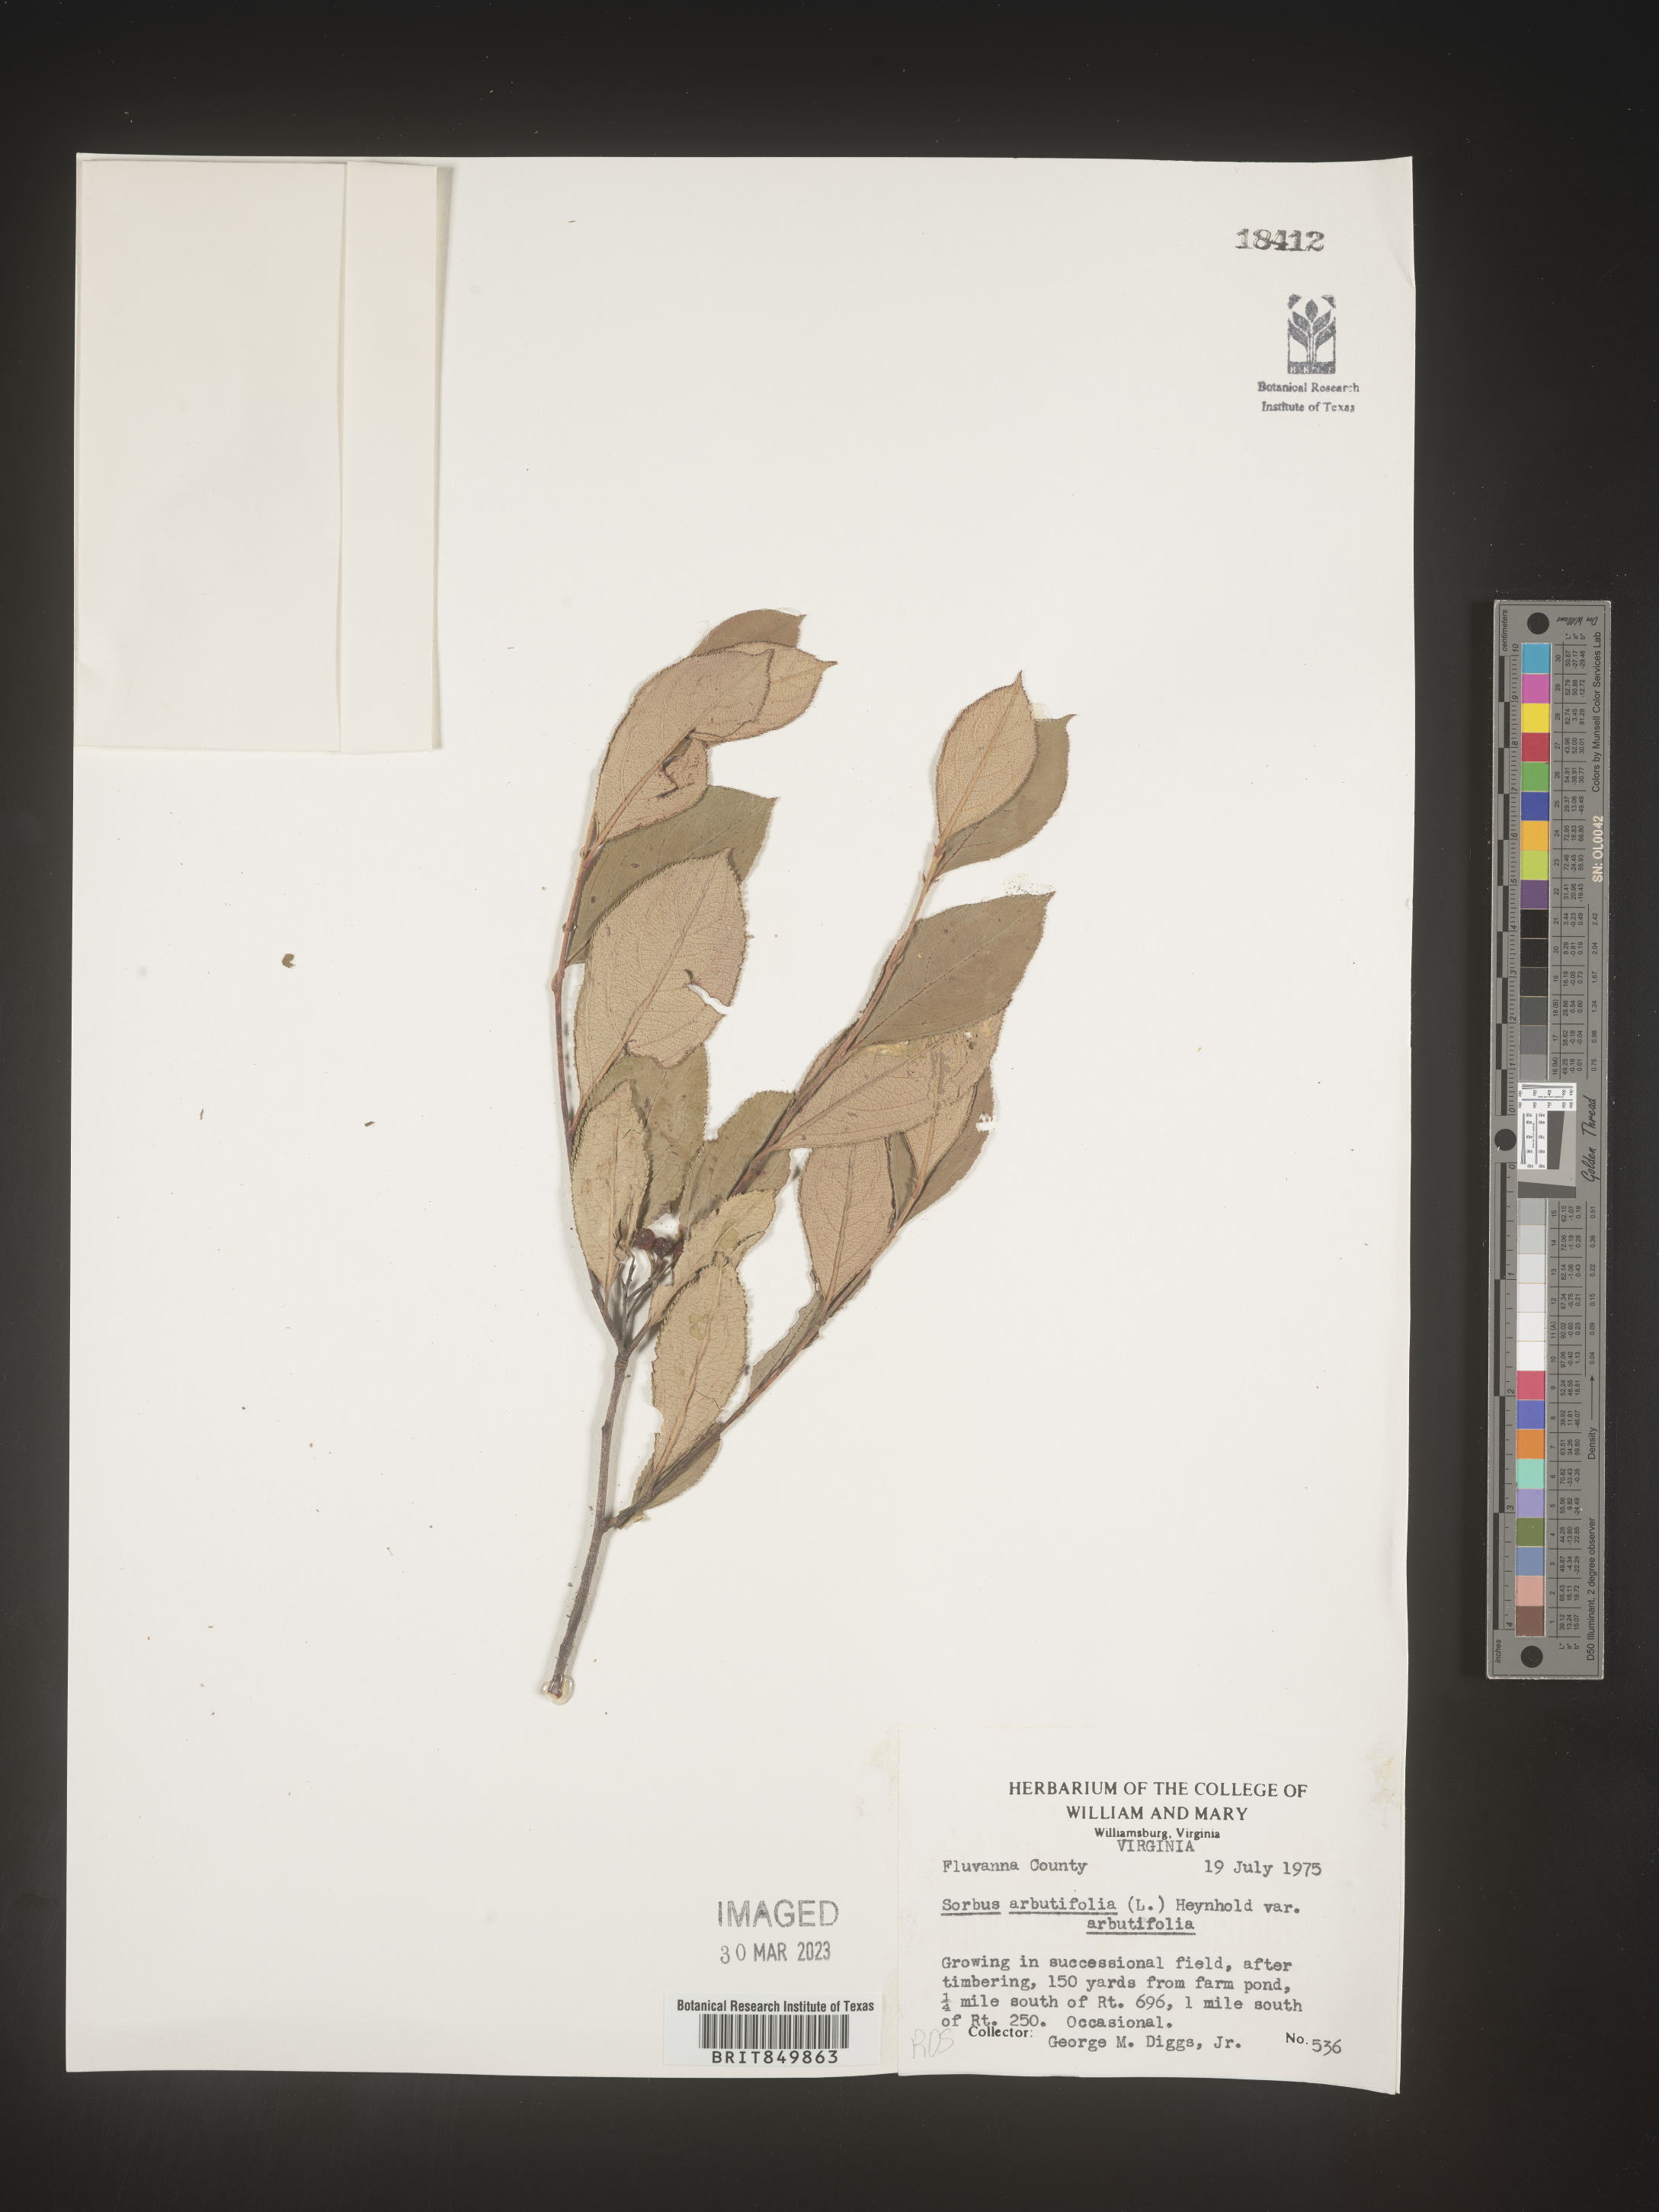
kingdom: Plantae
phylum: Tracheophyta
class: Magnoliopsida
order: Rosales
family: Rosaceae
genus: Sorbus
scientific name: Sorbus
